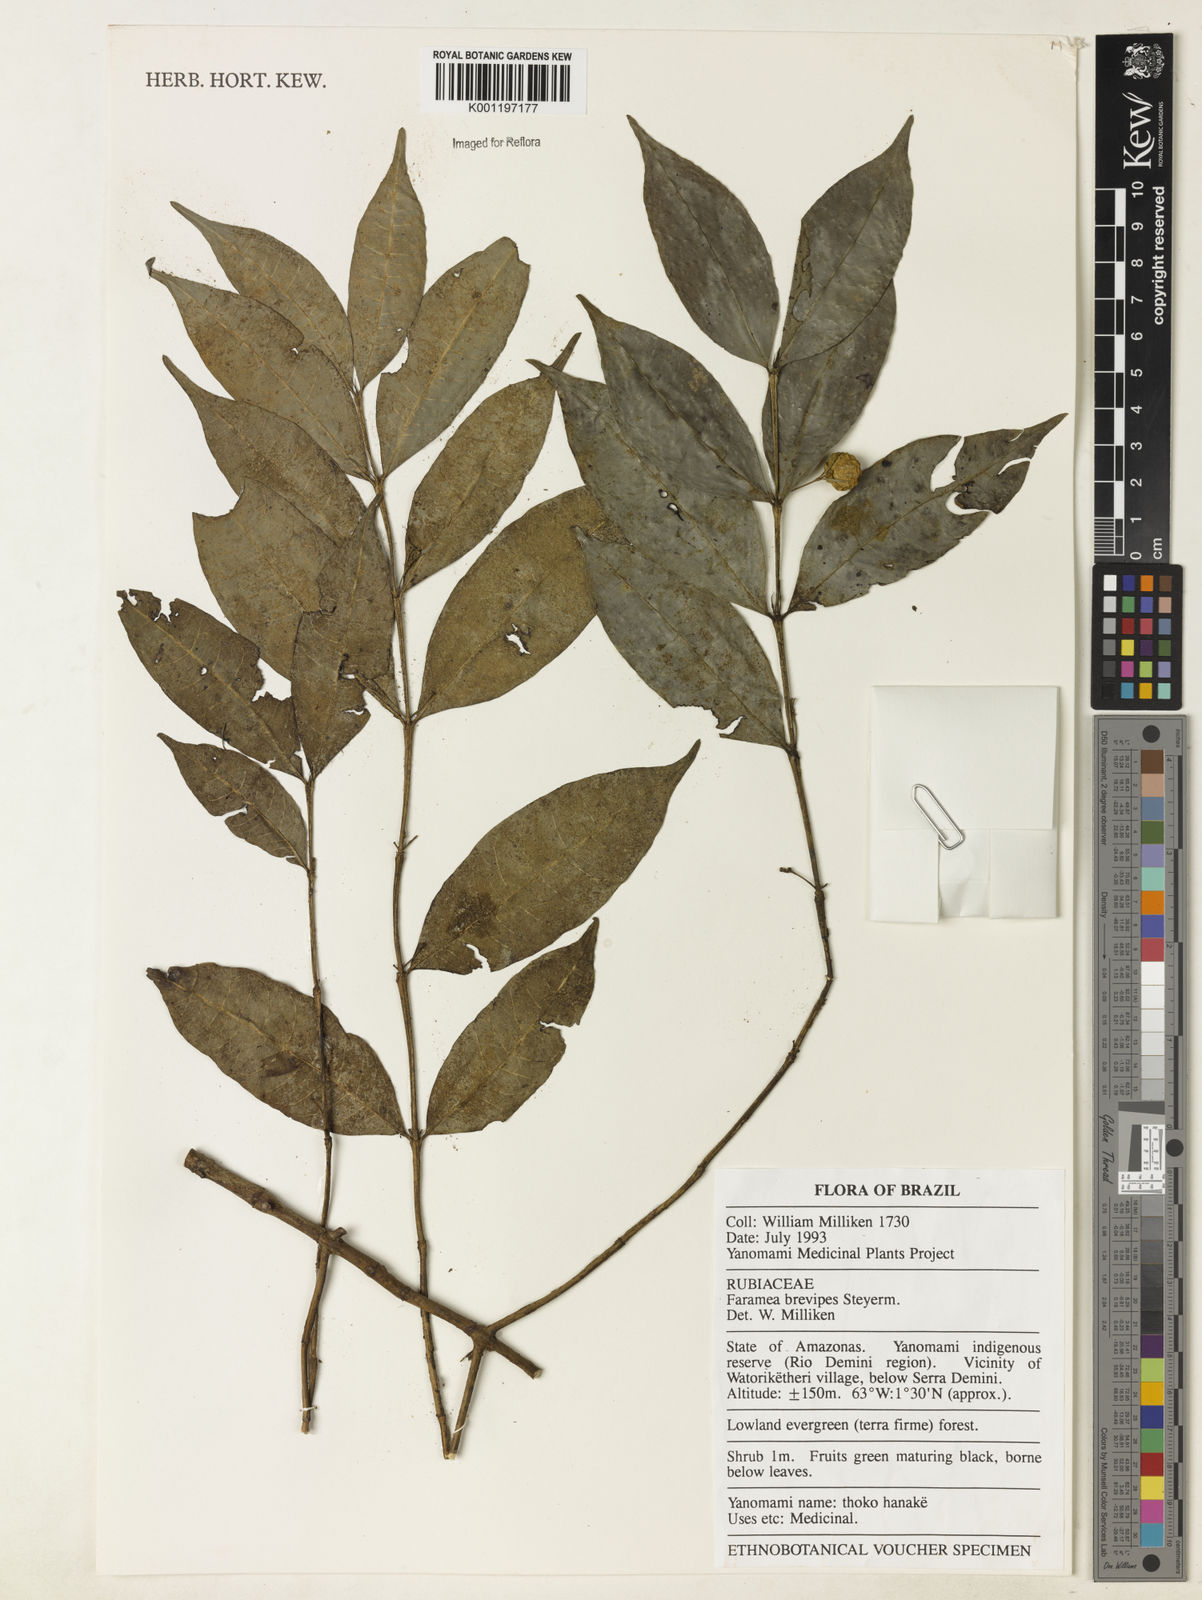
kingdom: Plantae
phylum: Tracheophyta
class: Magnoliopsida
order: Gentianales
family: Rubiaceae
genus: Faramea
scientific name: Faramea brevipes
